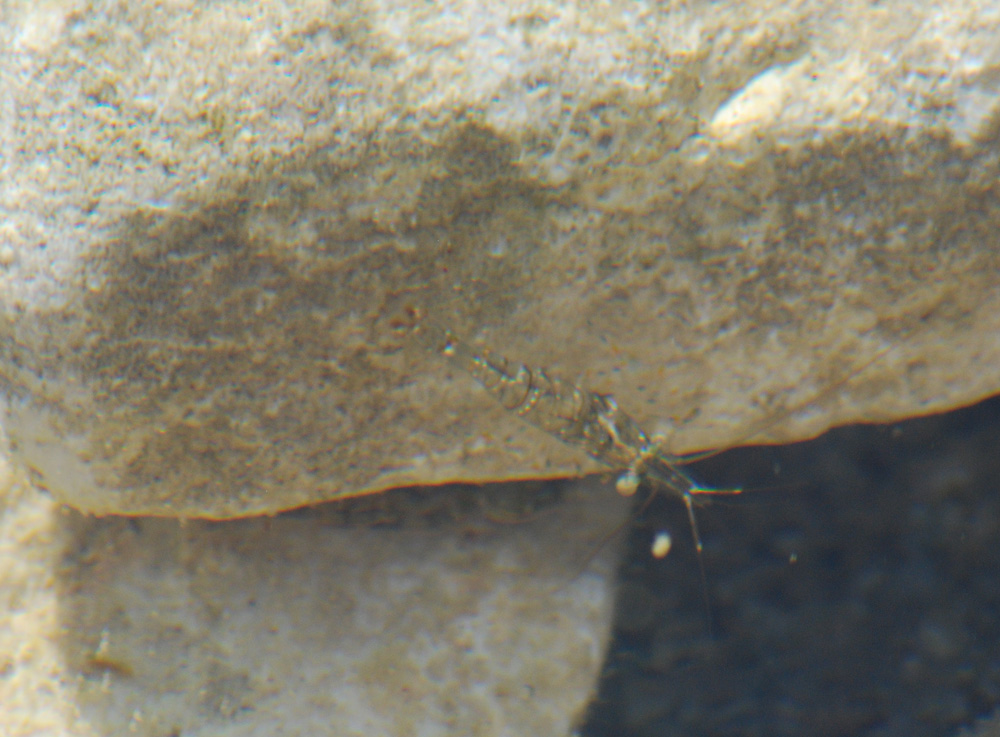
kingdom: Animalia
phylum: Arthropoda
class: Malacostraca
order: Decapoda
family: Palaemonidae
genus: Palaemon
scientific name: Palaemon serratus
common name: Common prawn
